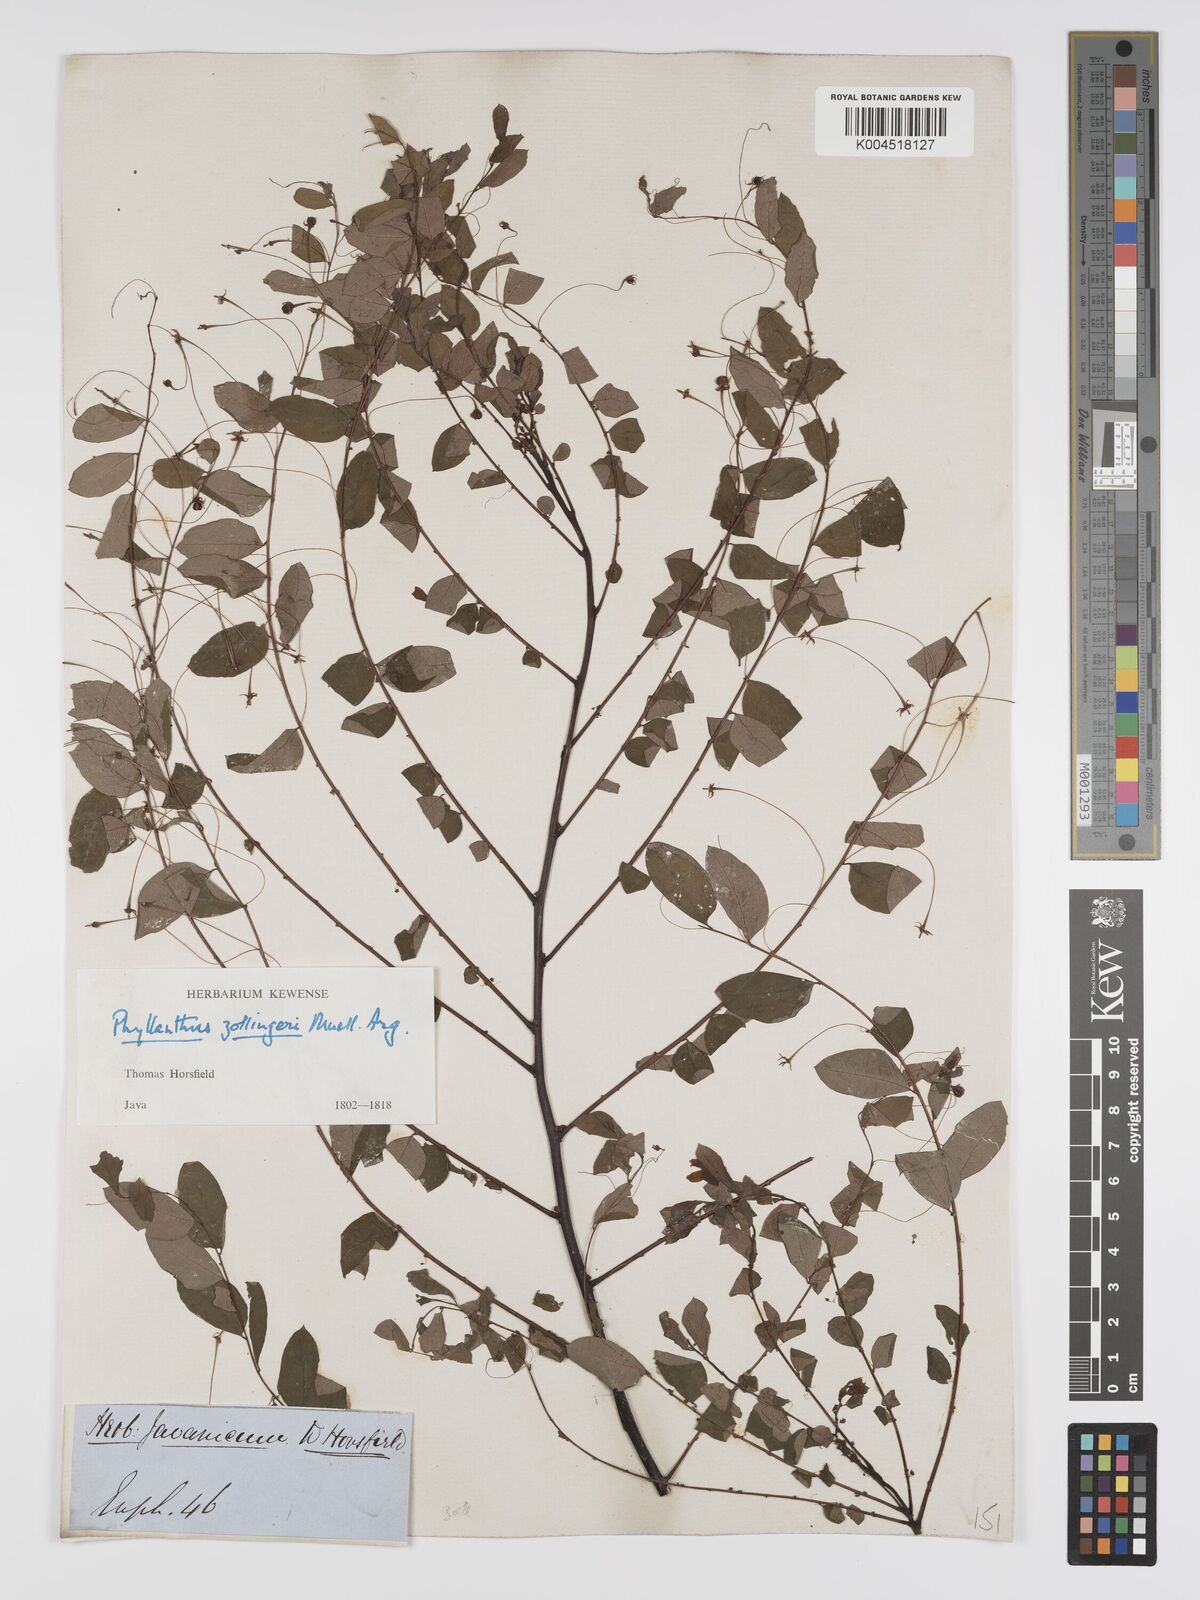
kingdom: Plantae
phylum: Tracheophyta
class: Magnoliopsida
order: Malpighiales
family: Phyllanthaceae
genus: Phyllanthus
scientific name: Phyllanthus
